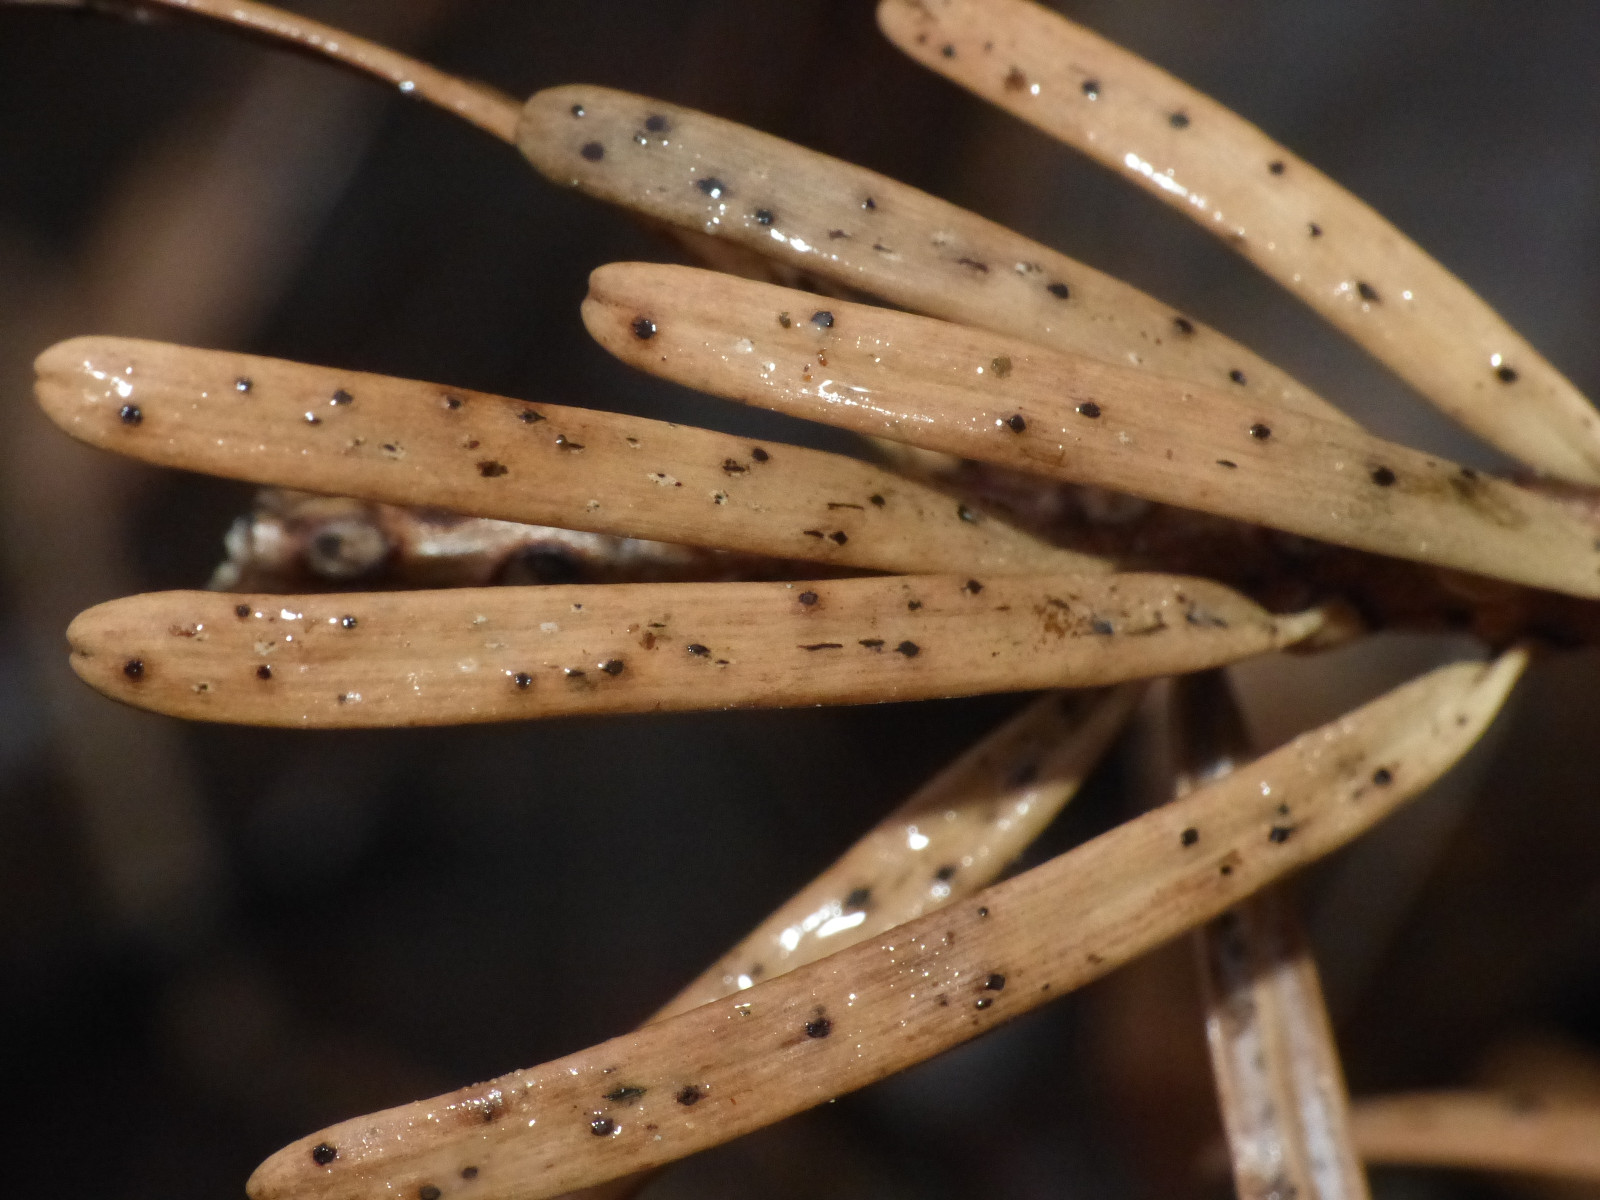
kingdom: Fungi
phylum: Ascomycota
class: Sordariomycetes
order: Diaporthales
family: Valsaceae
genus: Cytospora
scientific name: Cytospora pinastri
